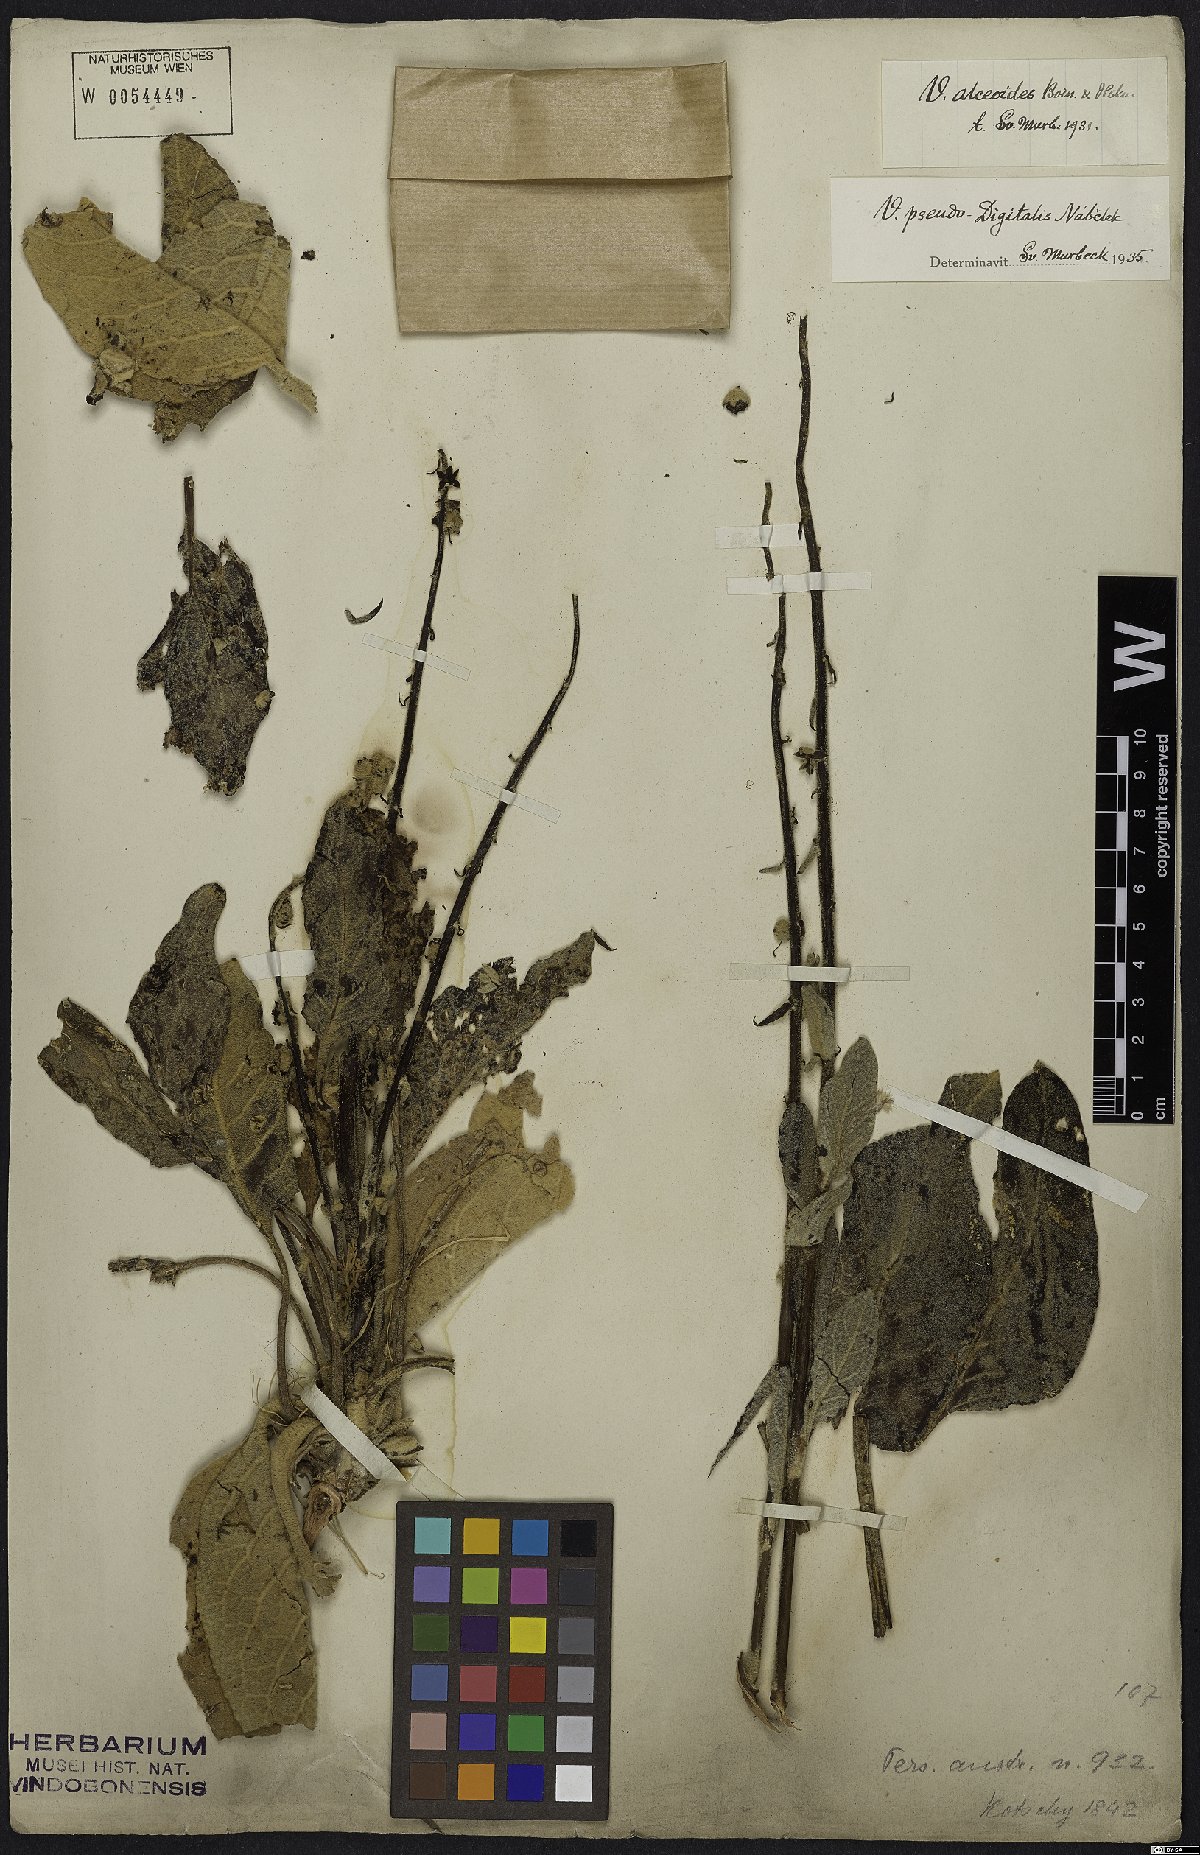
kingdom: Plantae
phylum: Tracheophyta
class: Magnoliopsida
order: Lamiales
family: Scrophulariaceae
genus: Verbascum
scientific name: Verbascum pseudodigitalis
